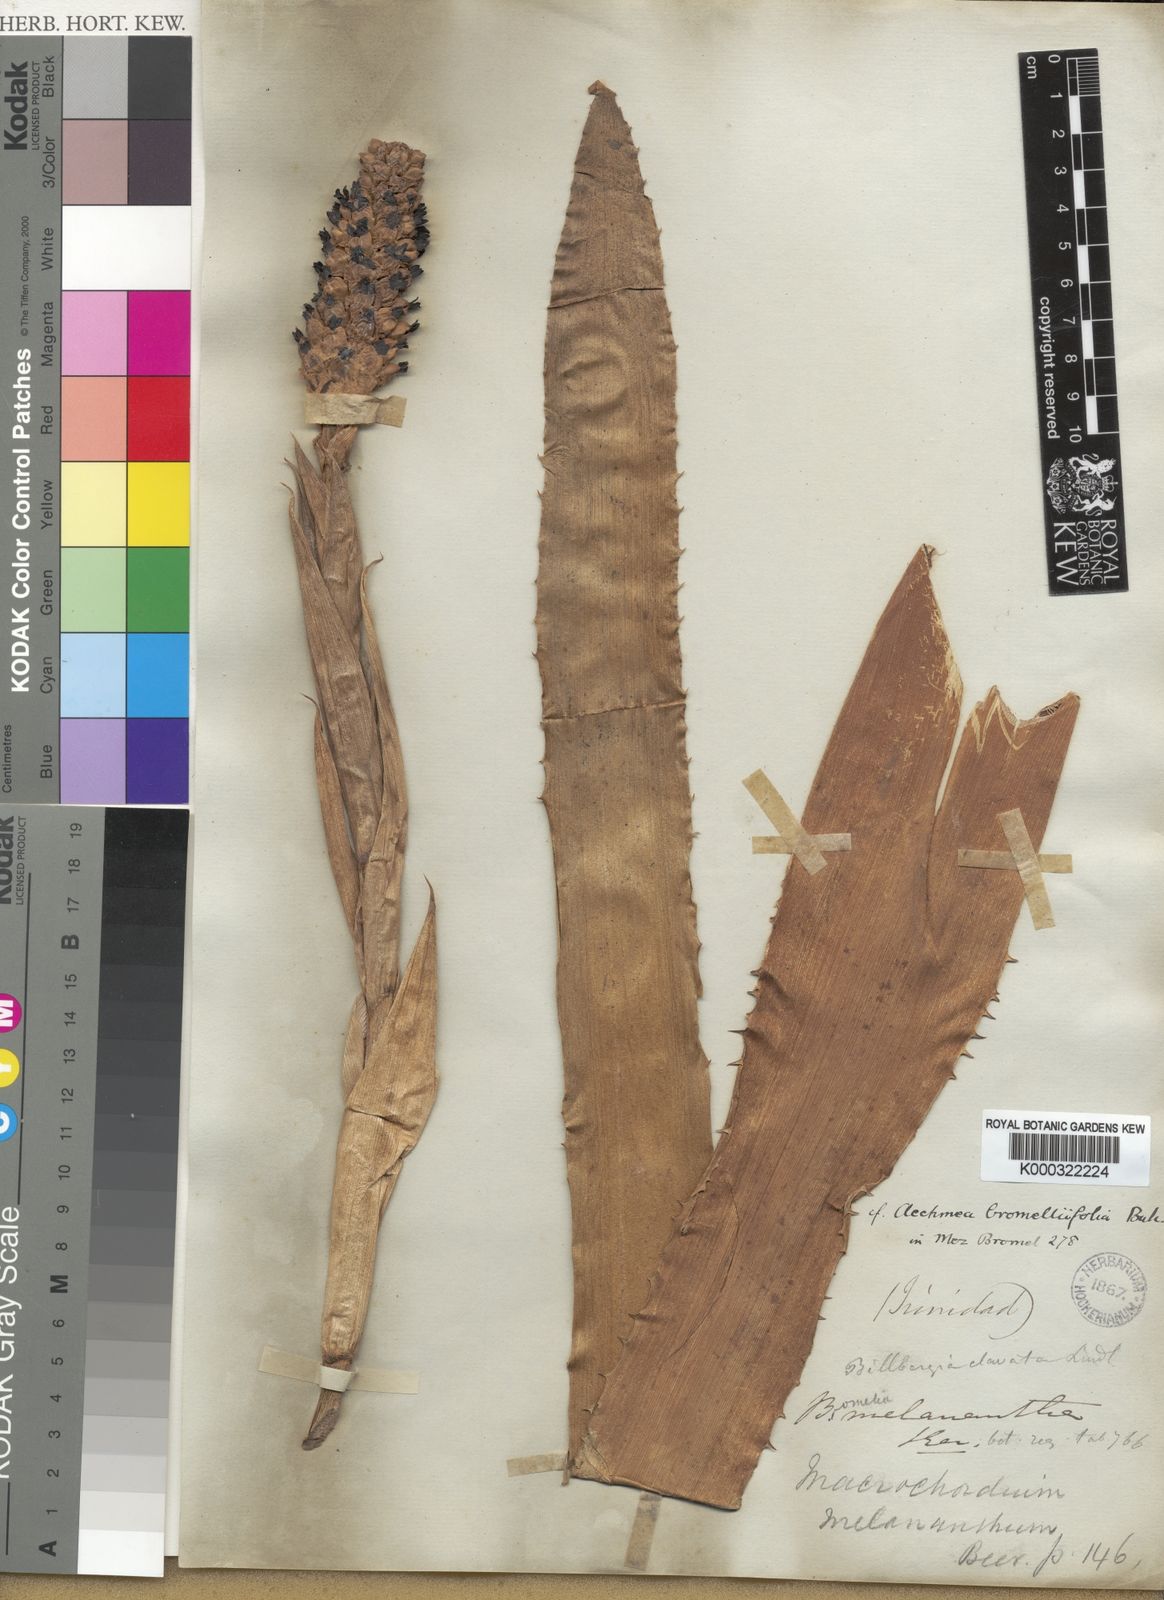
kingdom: Plantae
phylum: Tracheophyta
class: Liliopsida
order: Poales
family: Bromeliaceae
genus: Aechmea
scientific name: Aechmea
